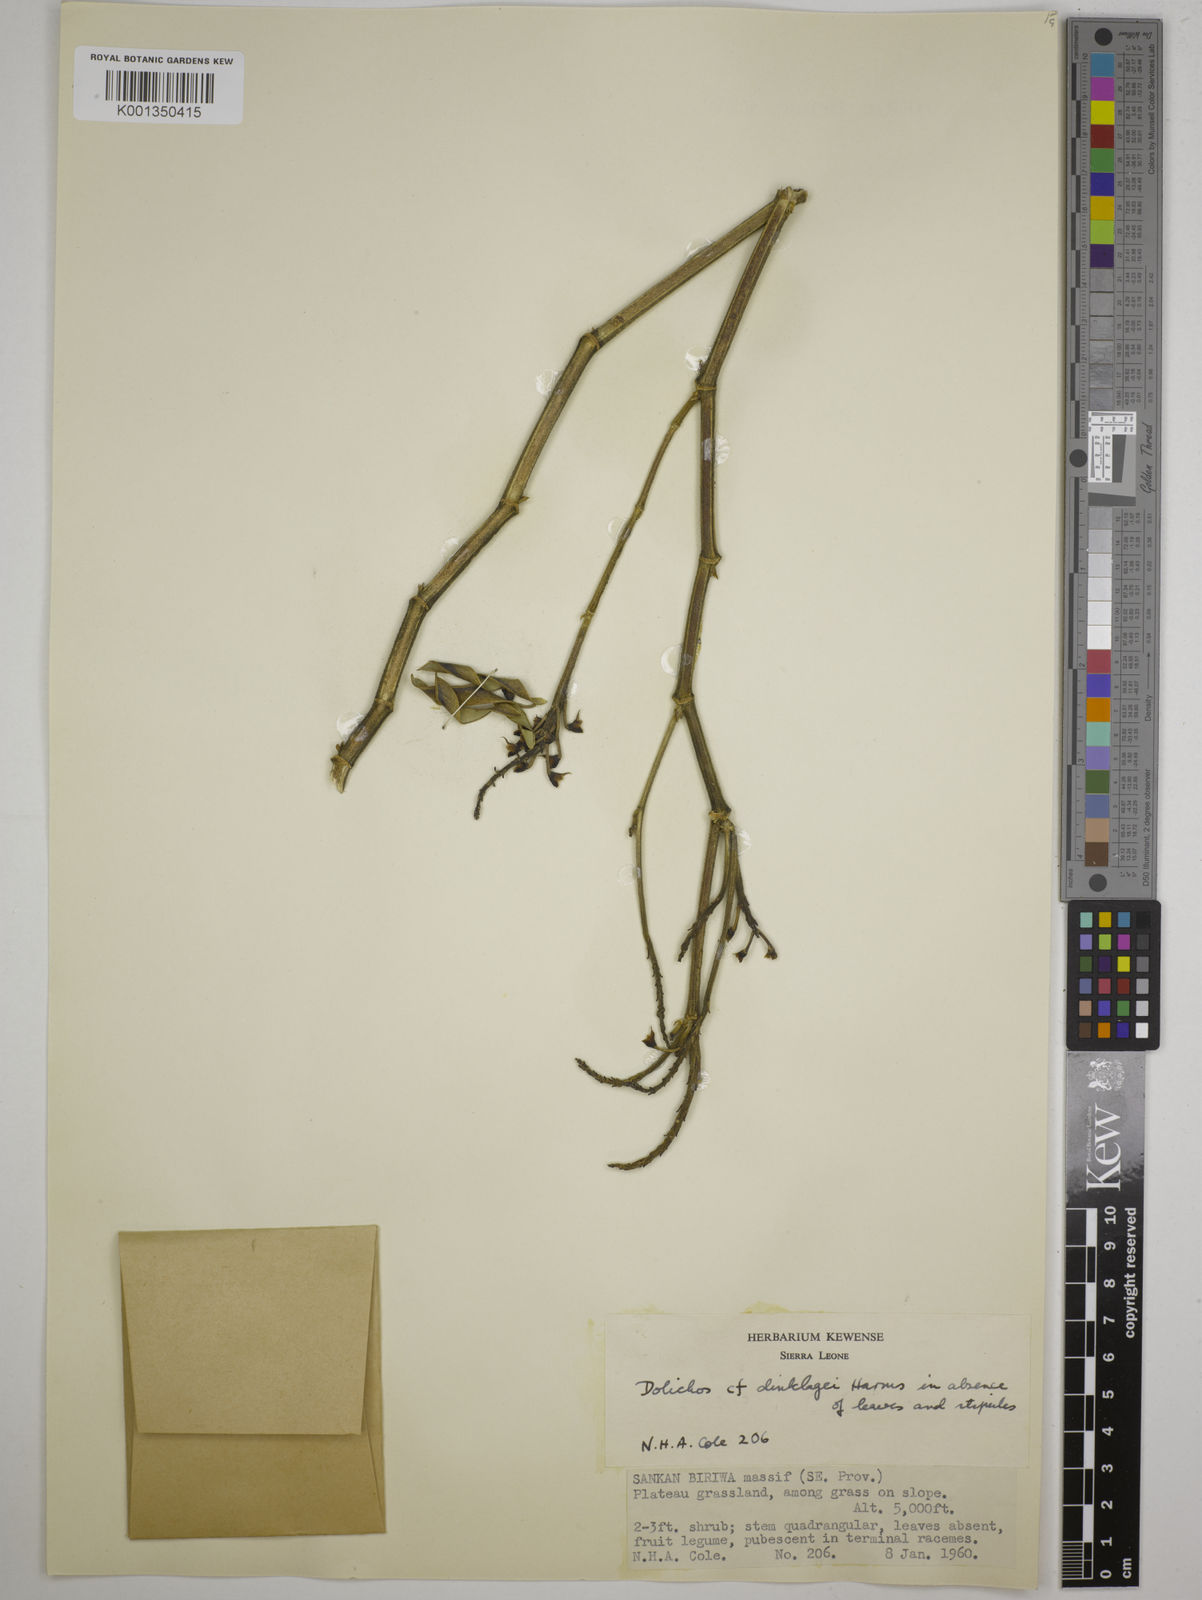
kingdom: Plantae
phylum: Tracheophyta
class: Magnoliopsida
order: Fabales
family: Fabaceae
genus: Dolichos
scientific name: Dolichos dinklagei
